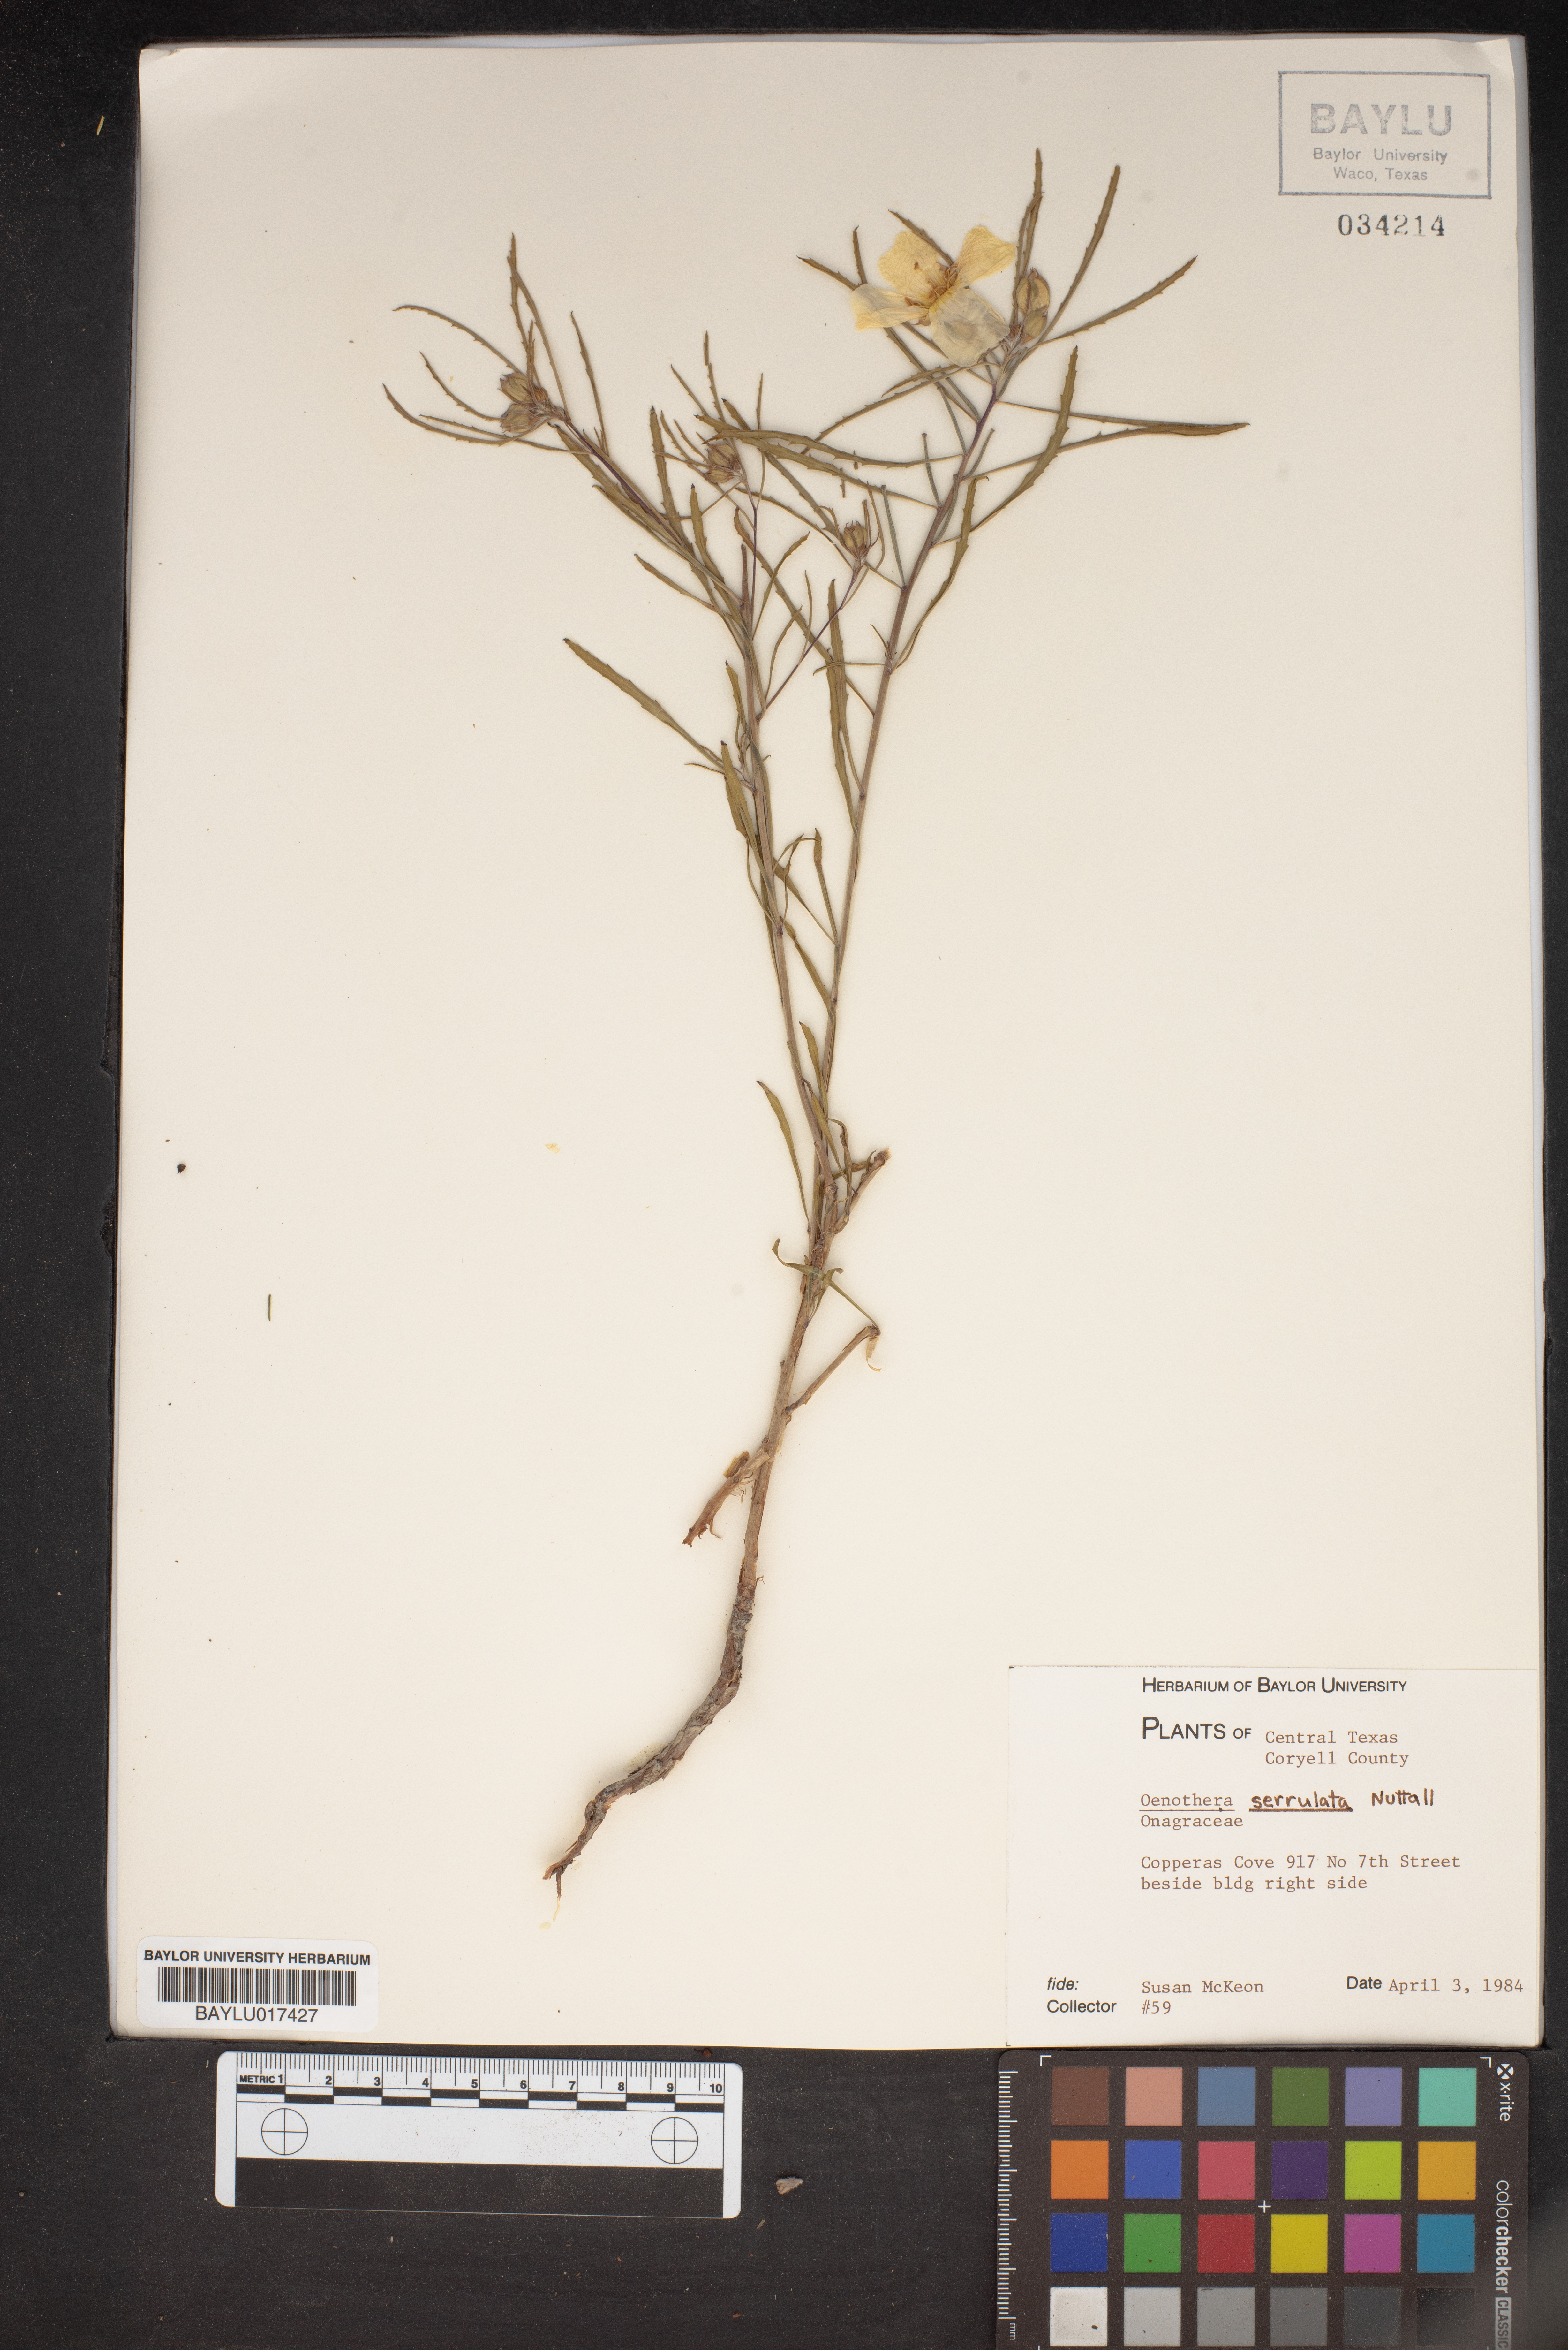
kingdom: Plantae
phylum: Tracheophyta
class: Magnoliopsida
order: Myrtales
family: Onagraceae
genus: Oenothera
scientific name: Oenothera serrulata
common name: Half-shrub calylophus
